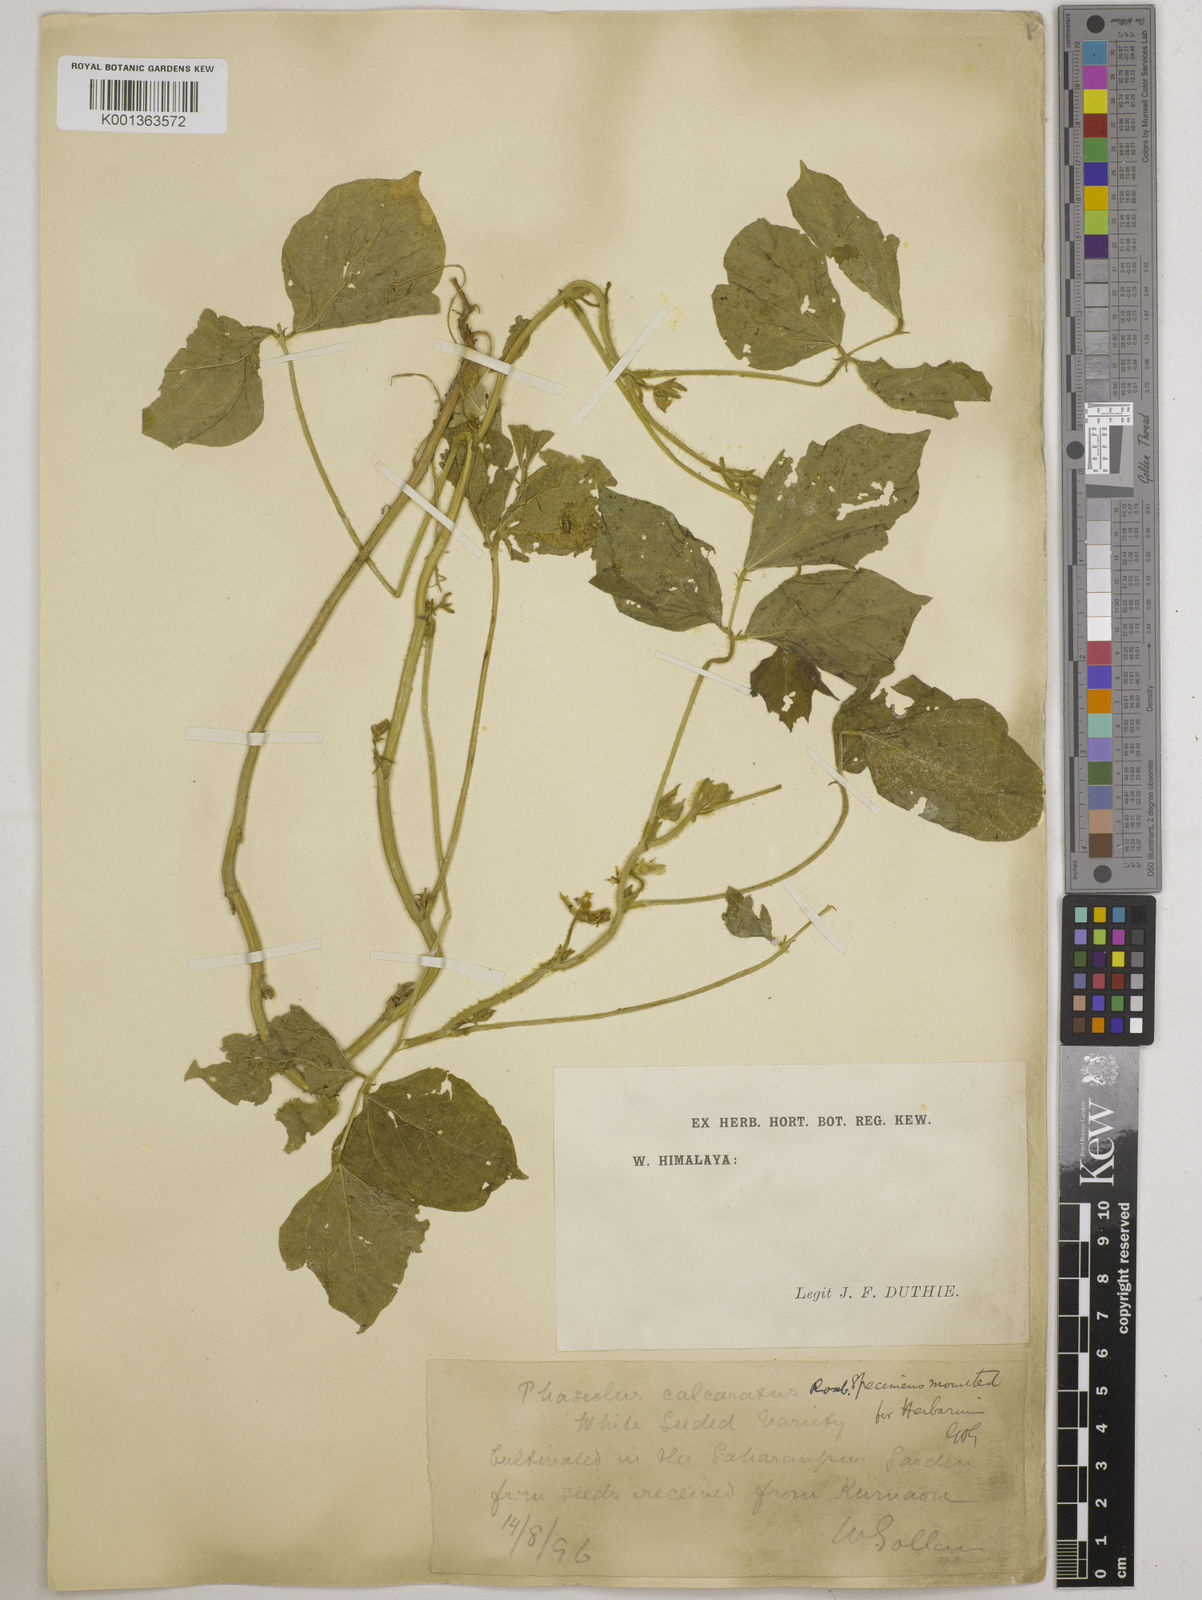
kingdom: Plantae
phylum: Tracheophyta
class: Magnoliopsida
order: Fabales
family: Fabaceae
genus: Vigna
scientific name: Vigna umbellata
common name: Oriental-bean
